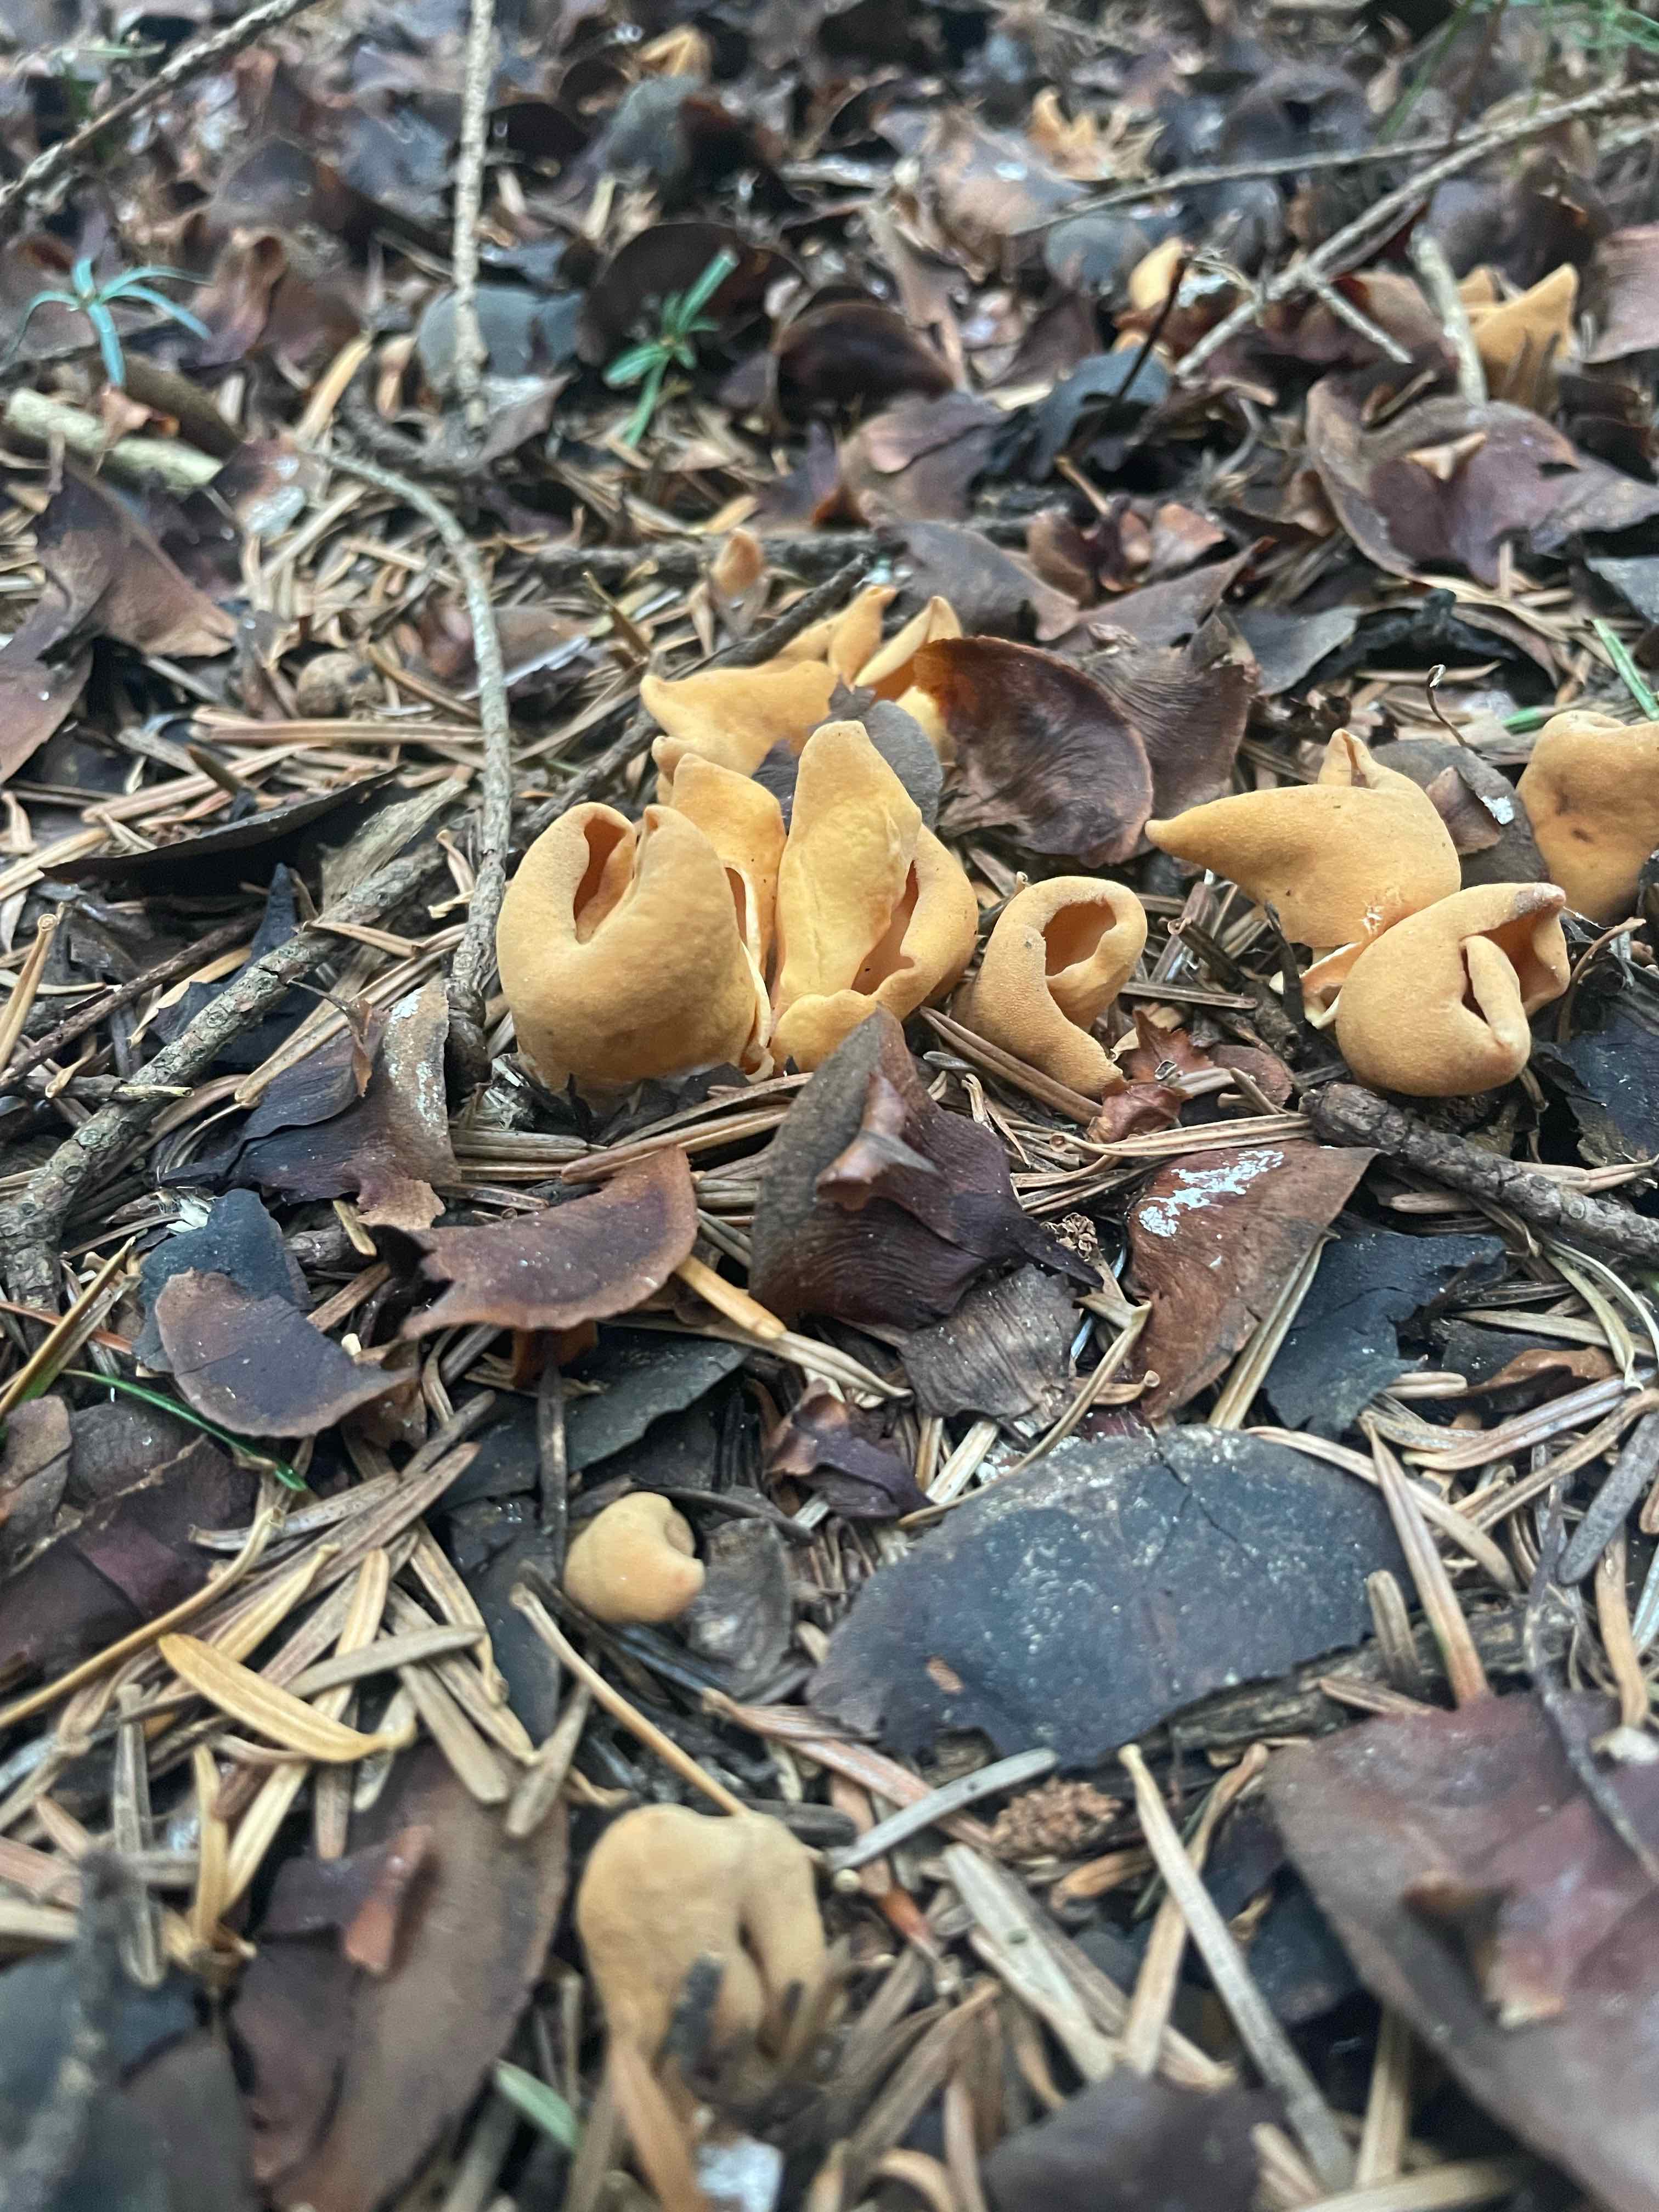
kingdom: Fungi
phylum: Ascomycota
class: Pezizomycetes
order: Pezizales
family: Otideaceae
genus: Otidea
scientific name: Otidea onotica
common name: æsel-ørebæger
